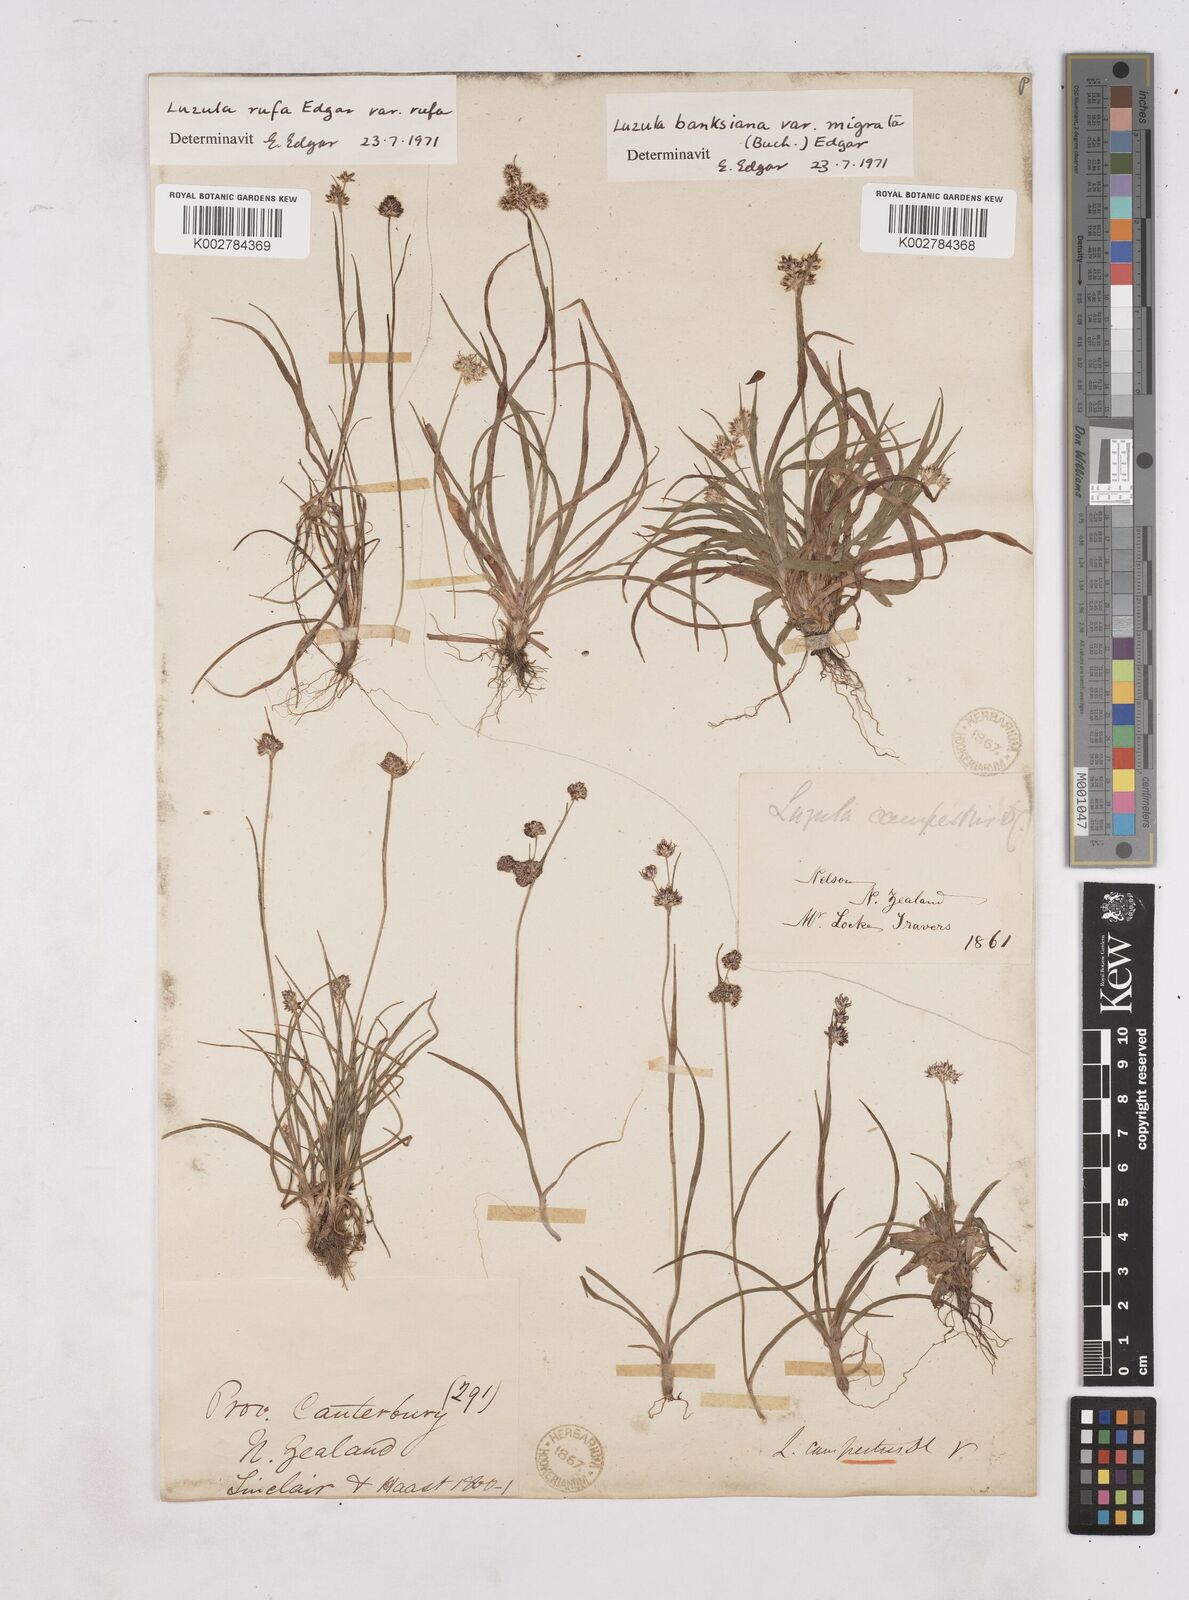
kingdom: Plantae
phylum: Tracheophyta
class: Liliopsida
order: Poales
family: Juncaceae
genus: Luzula
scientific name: Luzula
